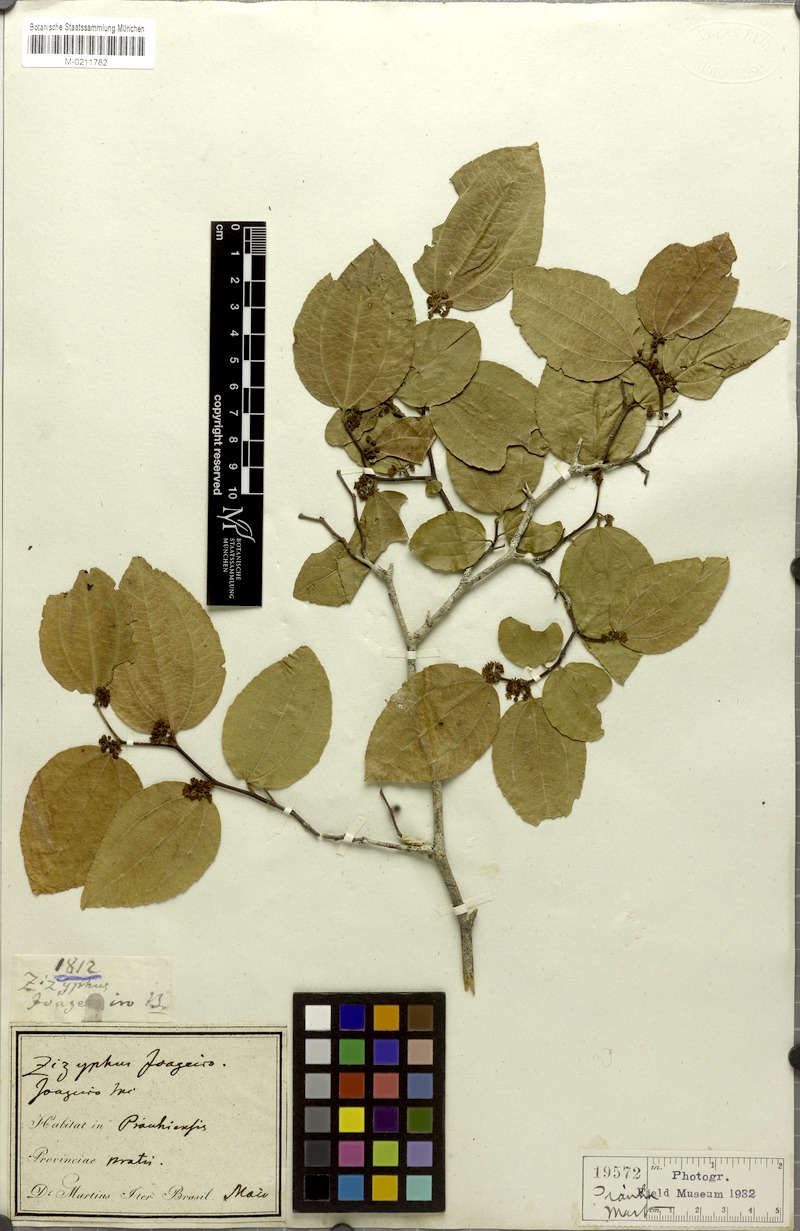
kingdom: Plantae
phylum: Tracheophyta
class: Magnoliopsida
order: Rosales
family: Rhamnaceae
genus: Sarcomphalus
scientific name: Sarcomphalus joazeiro
